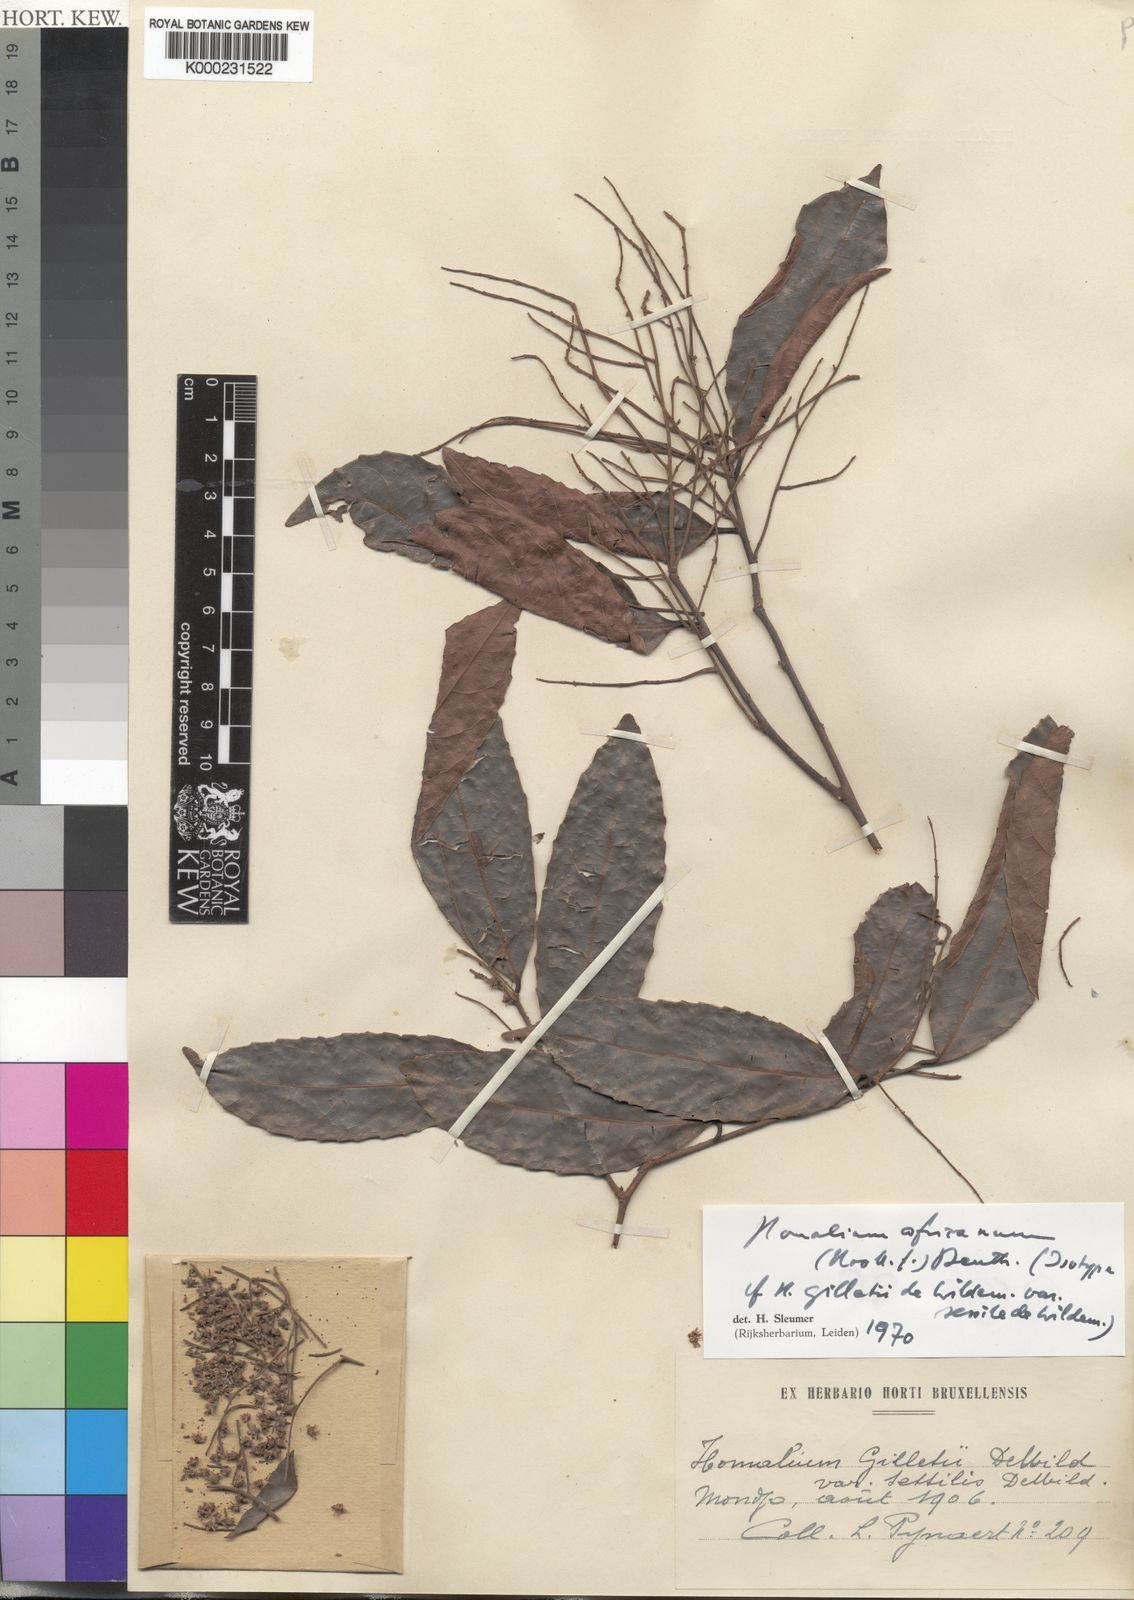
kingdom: Plantae
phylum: Tracheophyta
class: Magnoliopsida
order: Malpighiales
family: Salicaceae
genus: Homalium
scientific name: Homalium africanum
